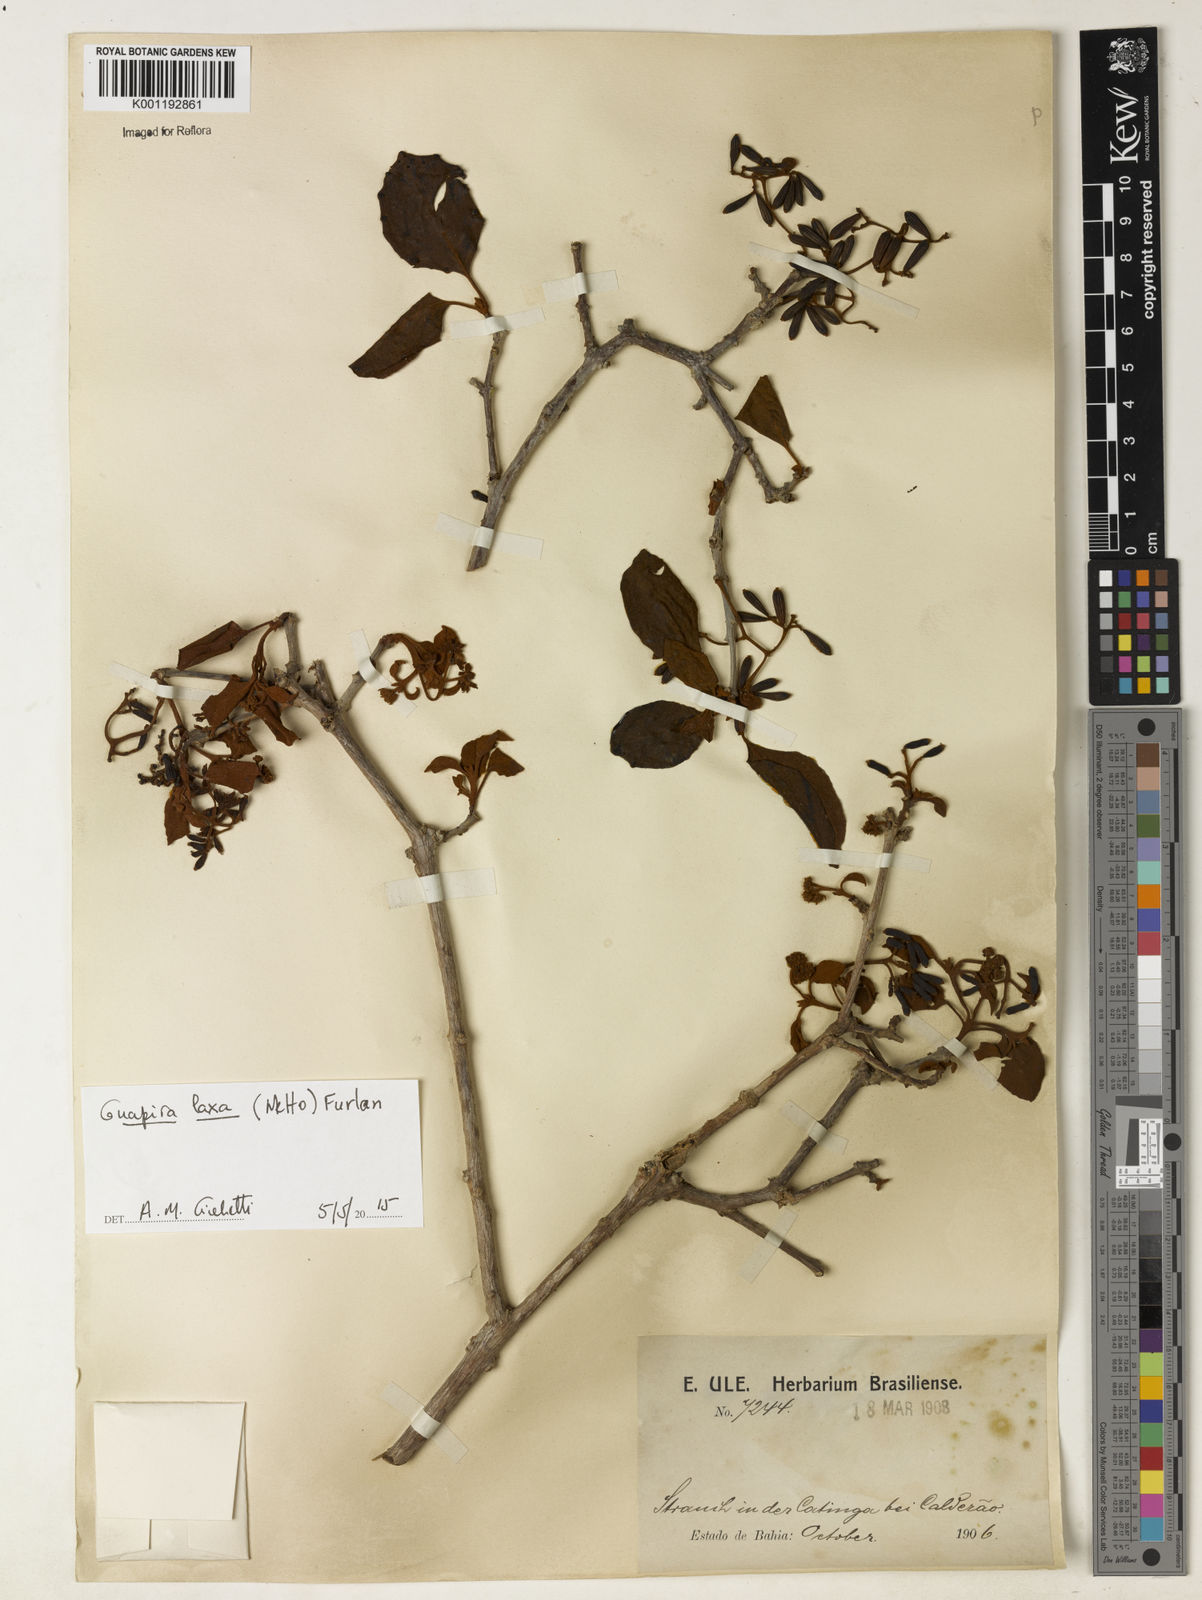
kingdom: Plantae
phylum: Tracheophyta
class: Magnoliopsida
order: Caryophyllales
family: Nyctaginaceae
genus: Guapira
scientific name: Guapira laxa
